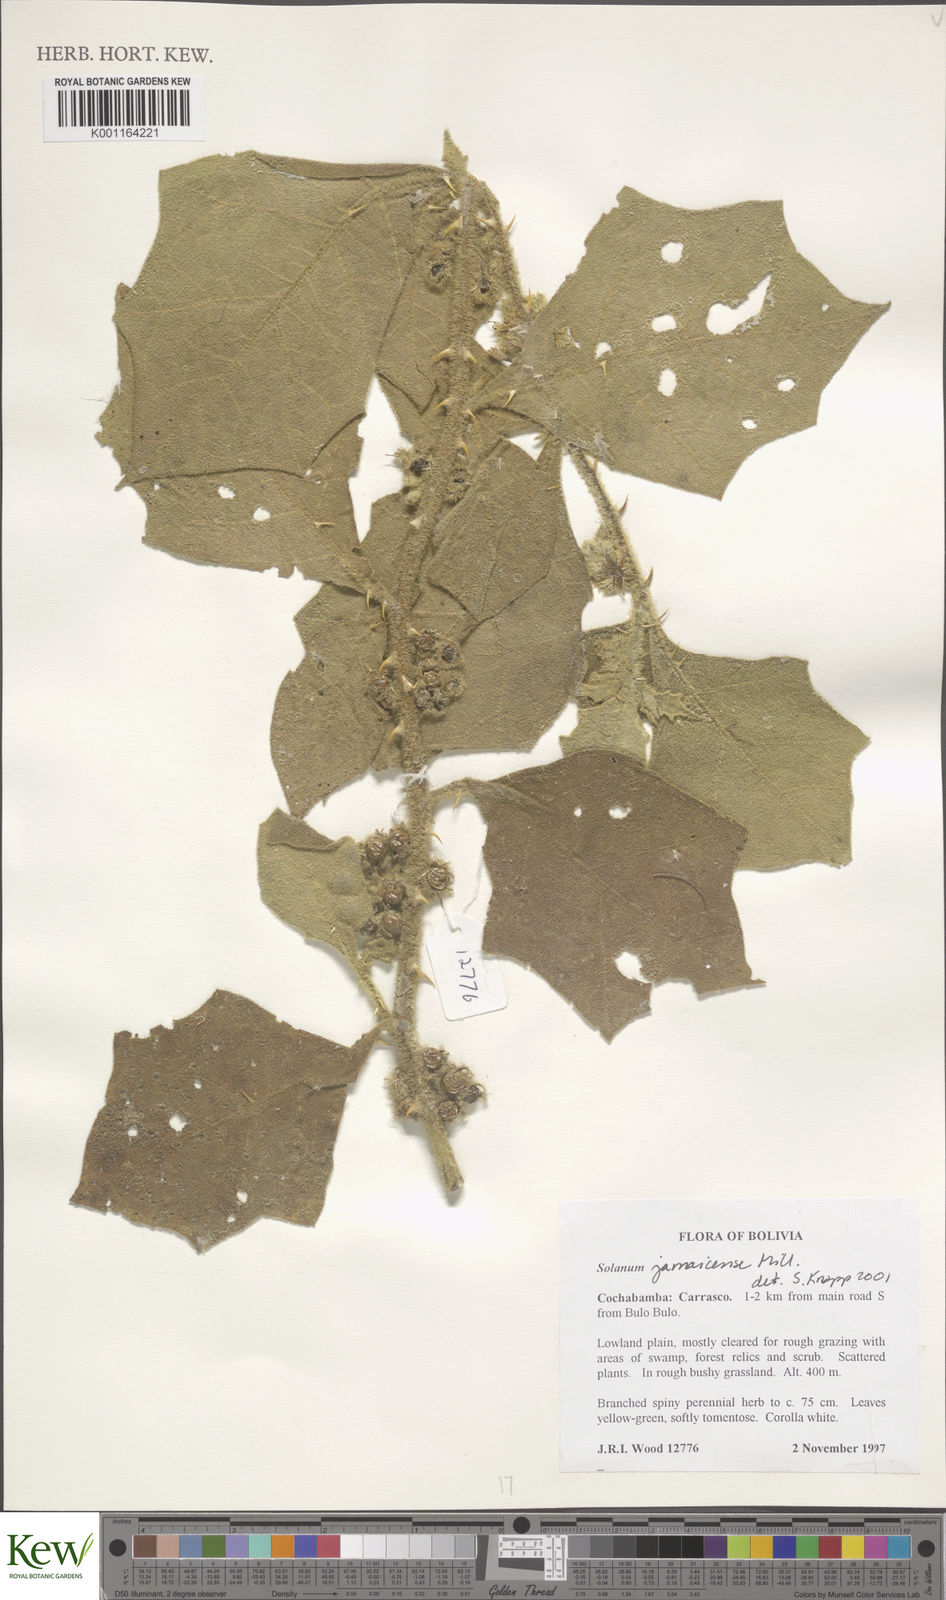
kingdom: Plantae
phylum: Tracheophyta
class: Magnoliopsida
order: Solanales
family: Solanaceae
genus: Solanum
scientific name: Solanum jamaicense
